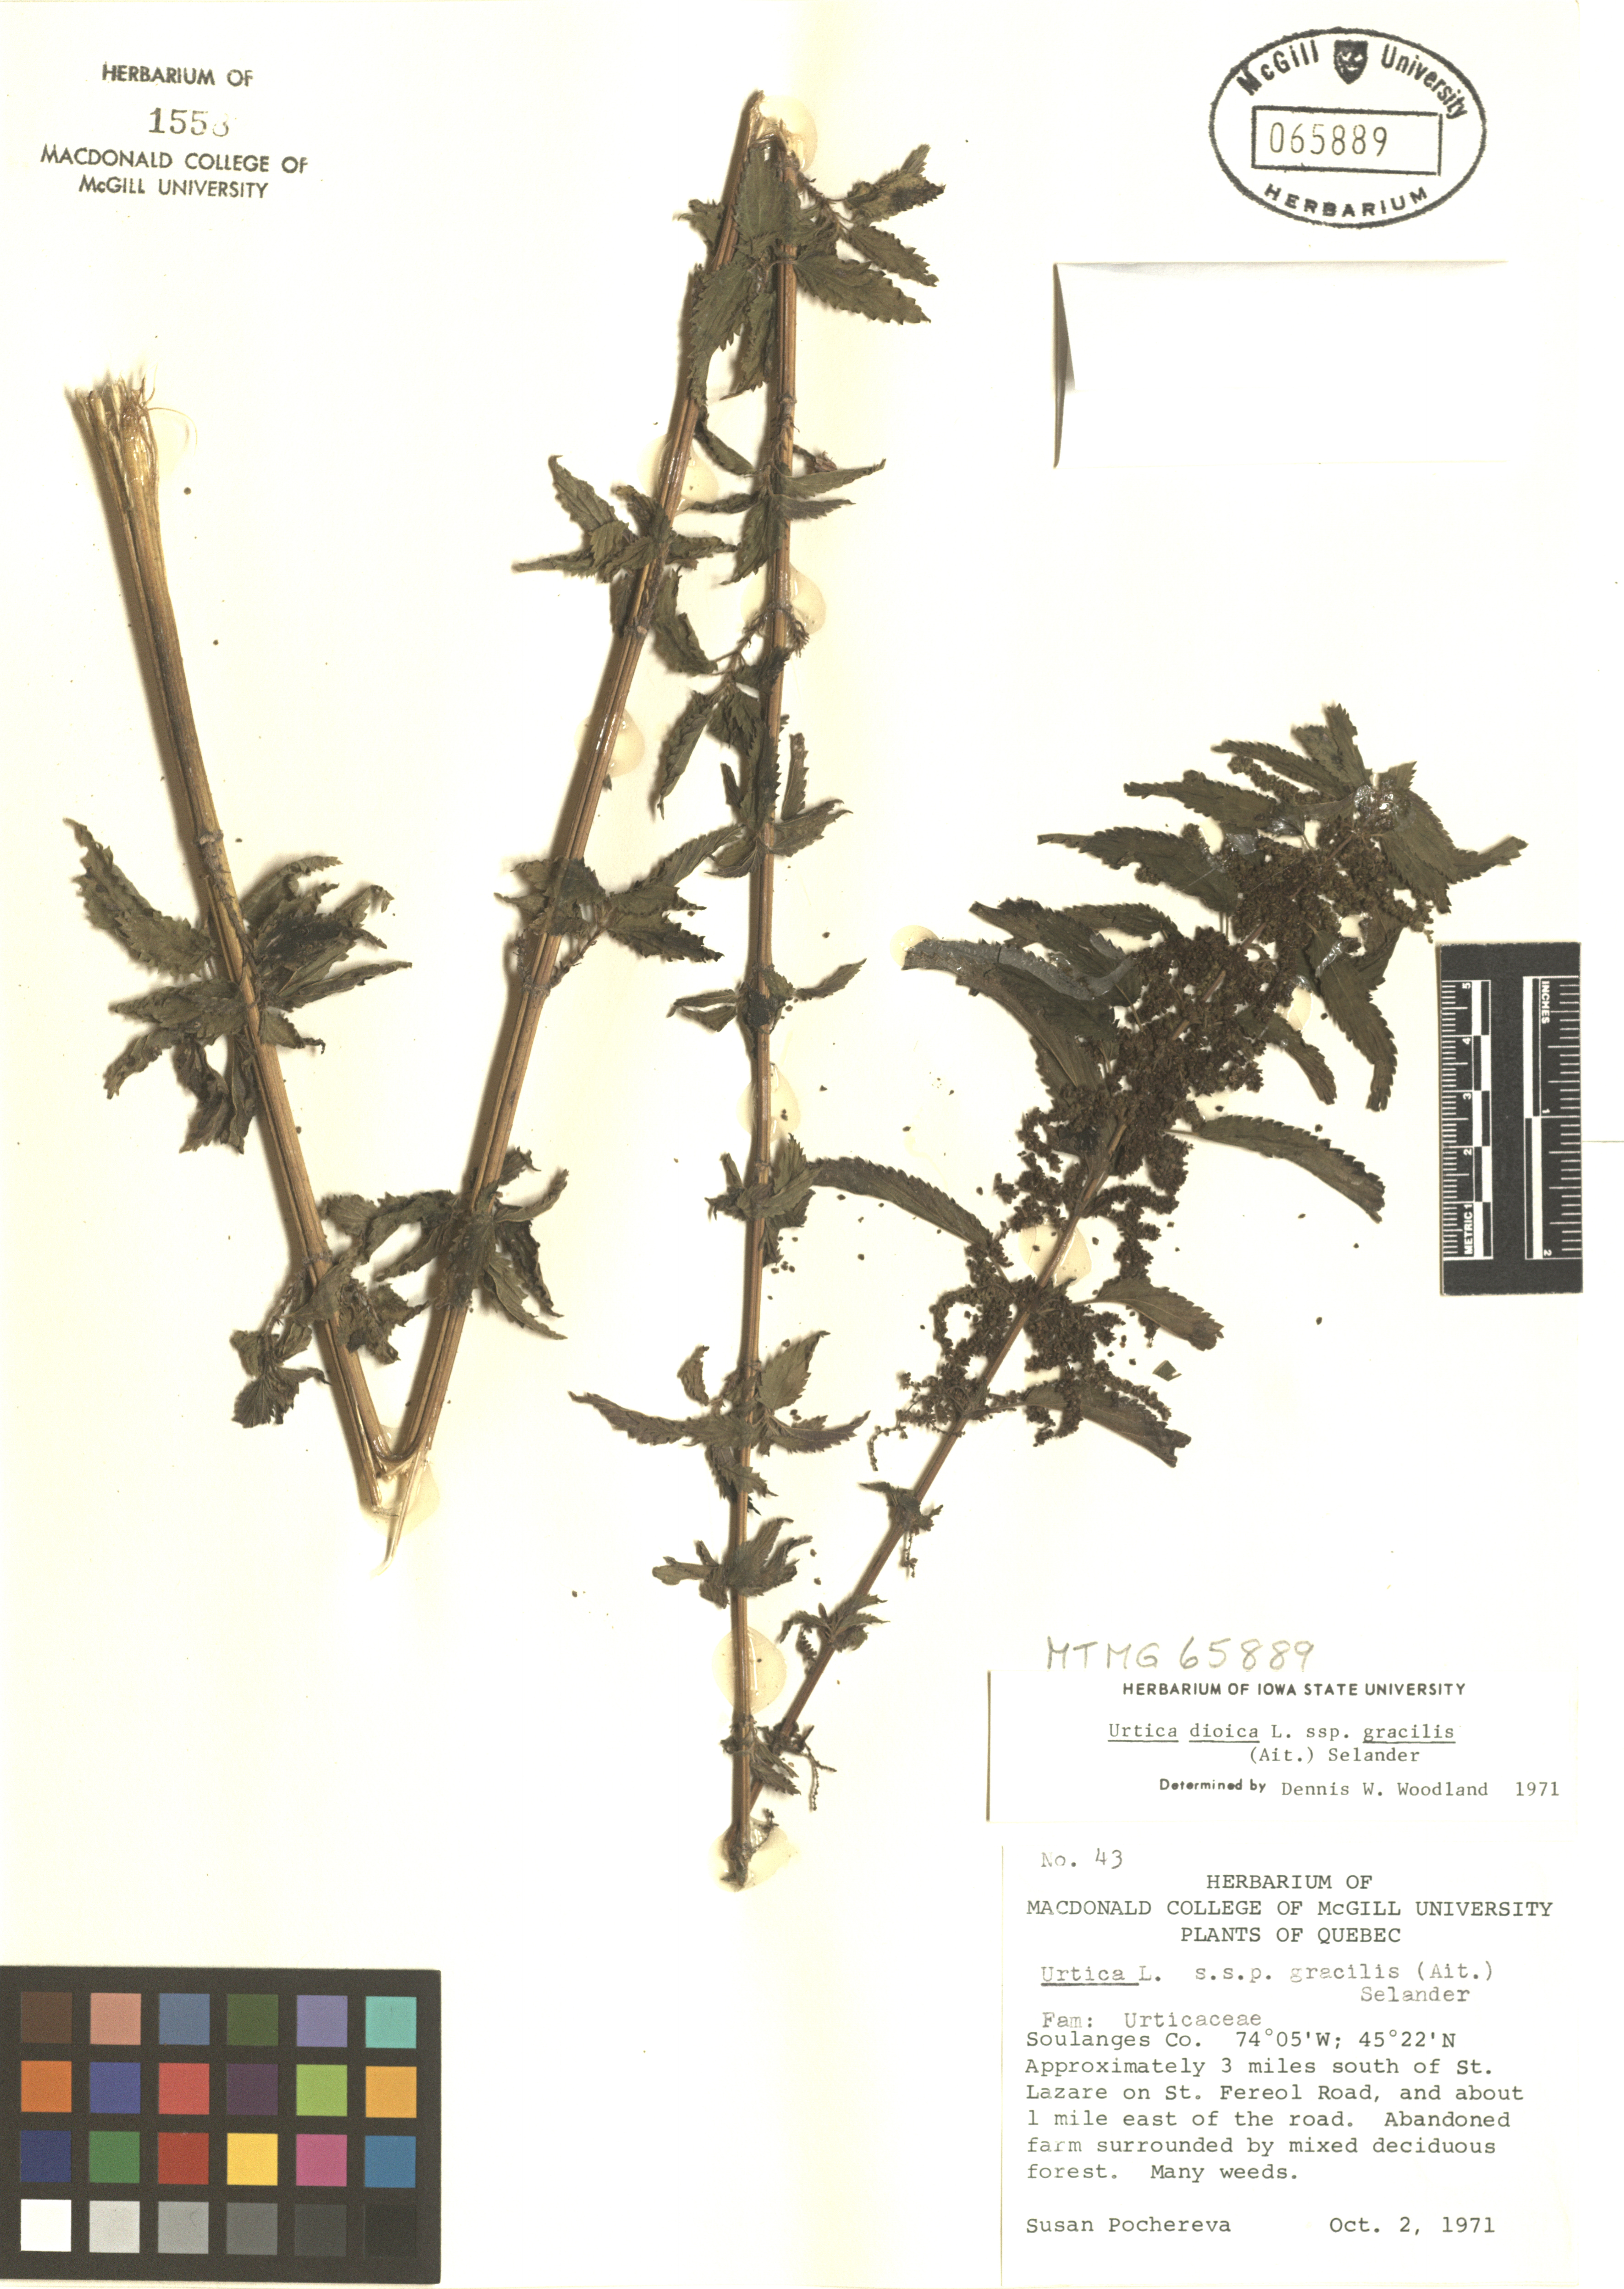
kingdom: Plantae
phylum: Tracheophyta
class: Magnoliopsida
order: Rosales
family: Urticaceae
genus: Urtica
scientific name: Urtica gracilis
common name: Slender stinging nettle
